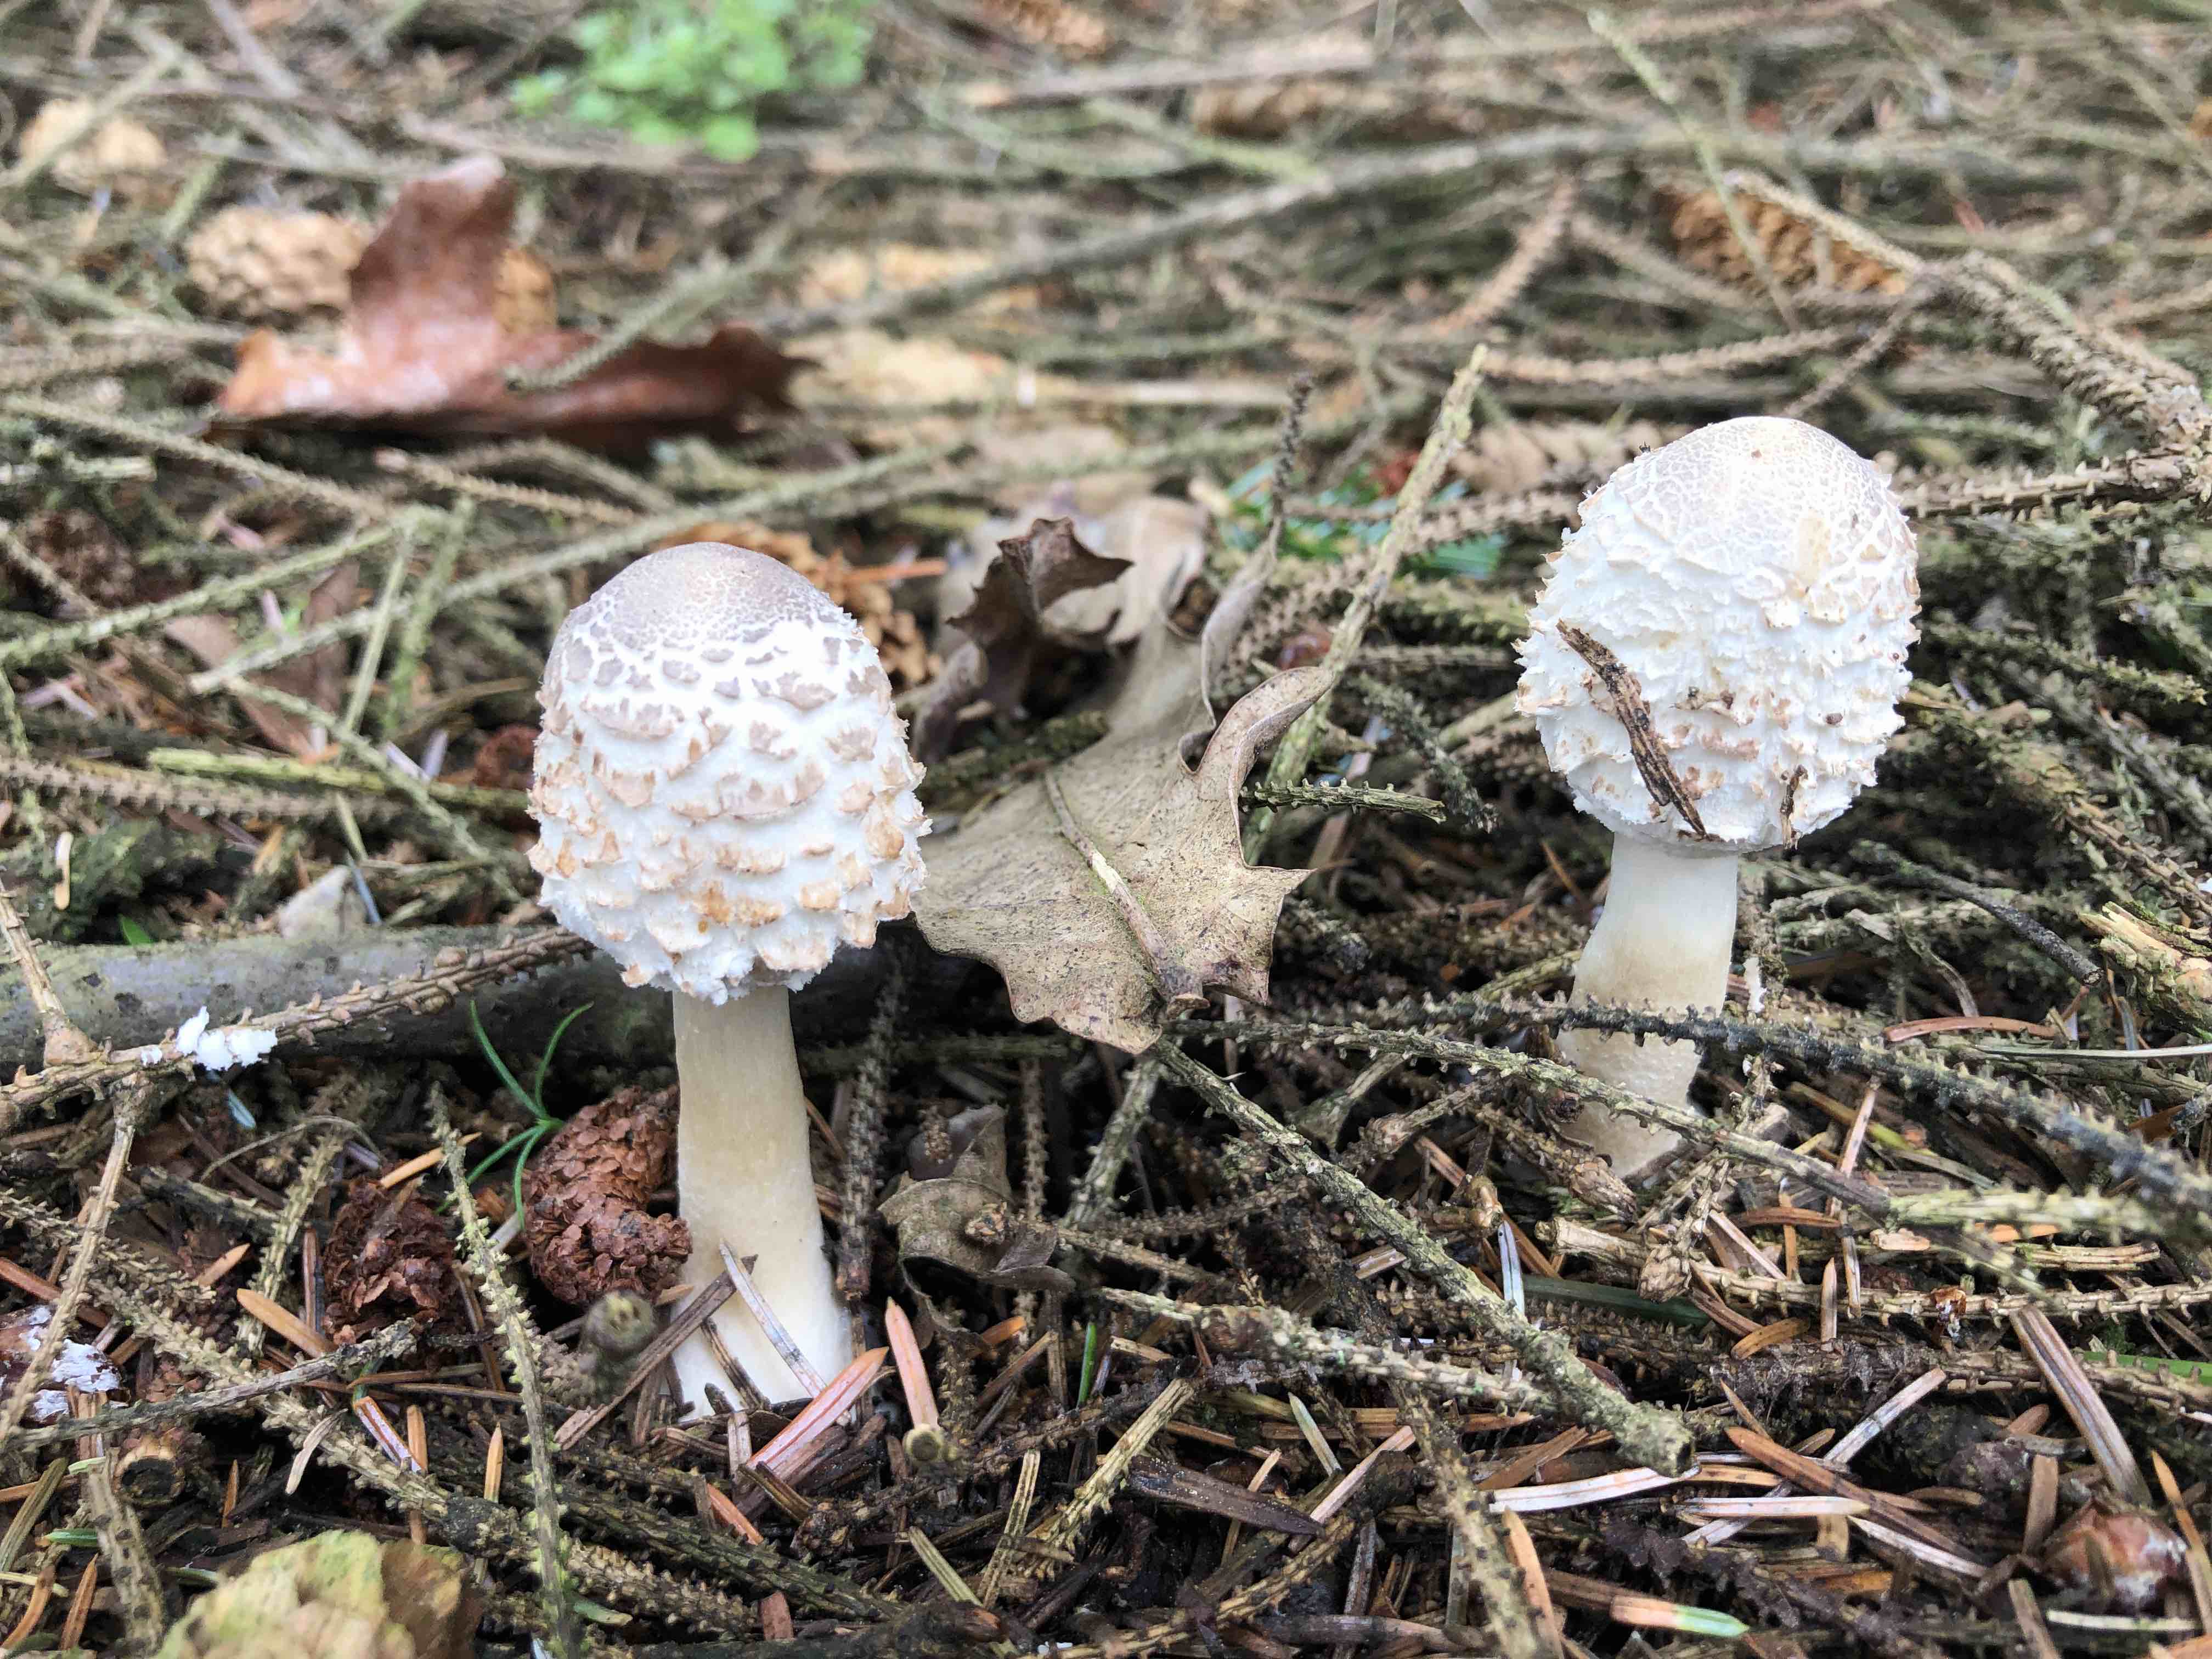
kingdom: Fungi
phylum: Basidiomycota
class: Agaricomycetes
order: Agaricales
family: Agaricaceae
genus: Leucoagaricus
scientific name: Leucoagaricus nympharum
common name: gran-silkehat
